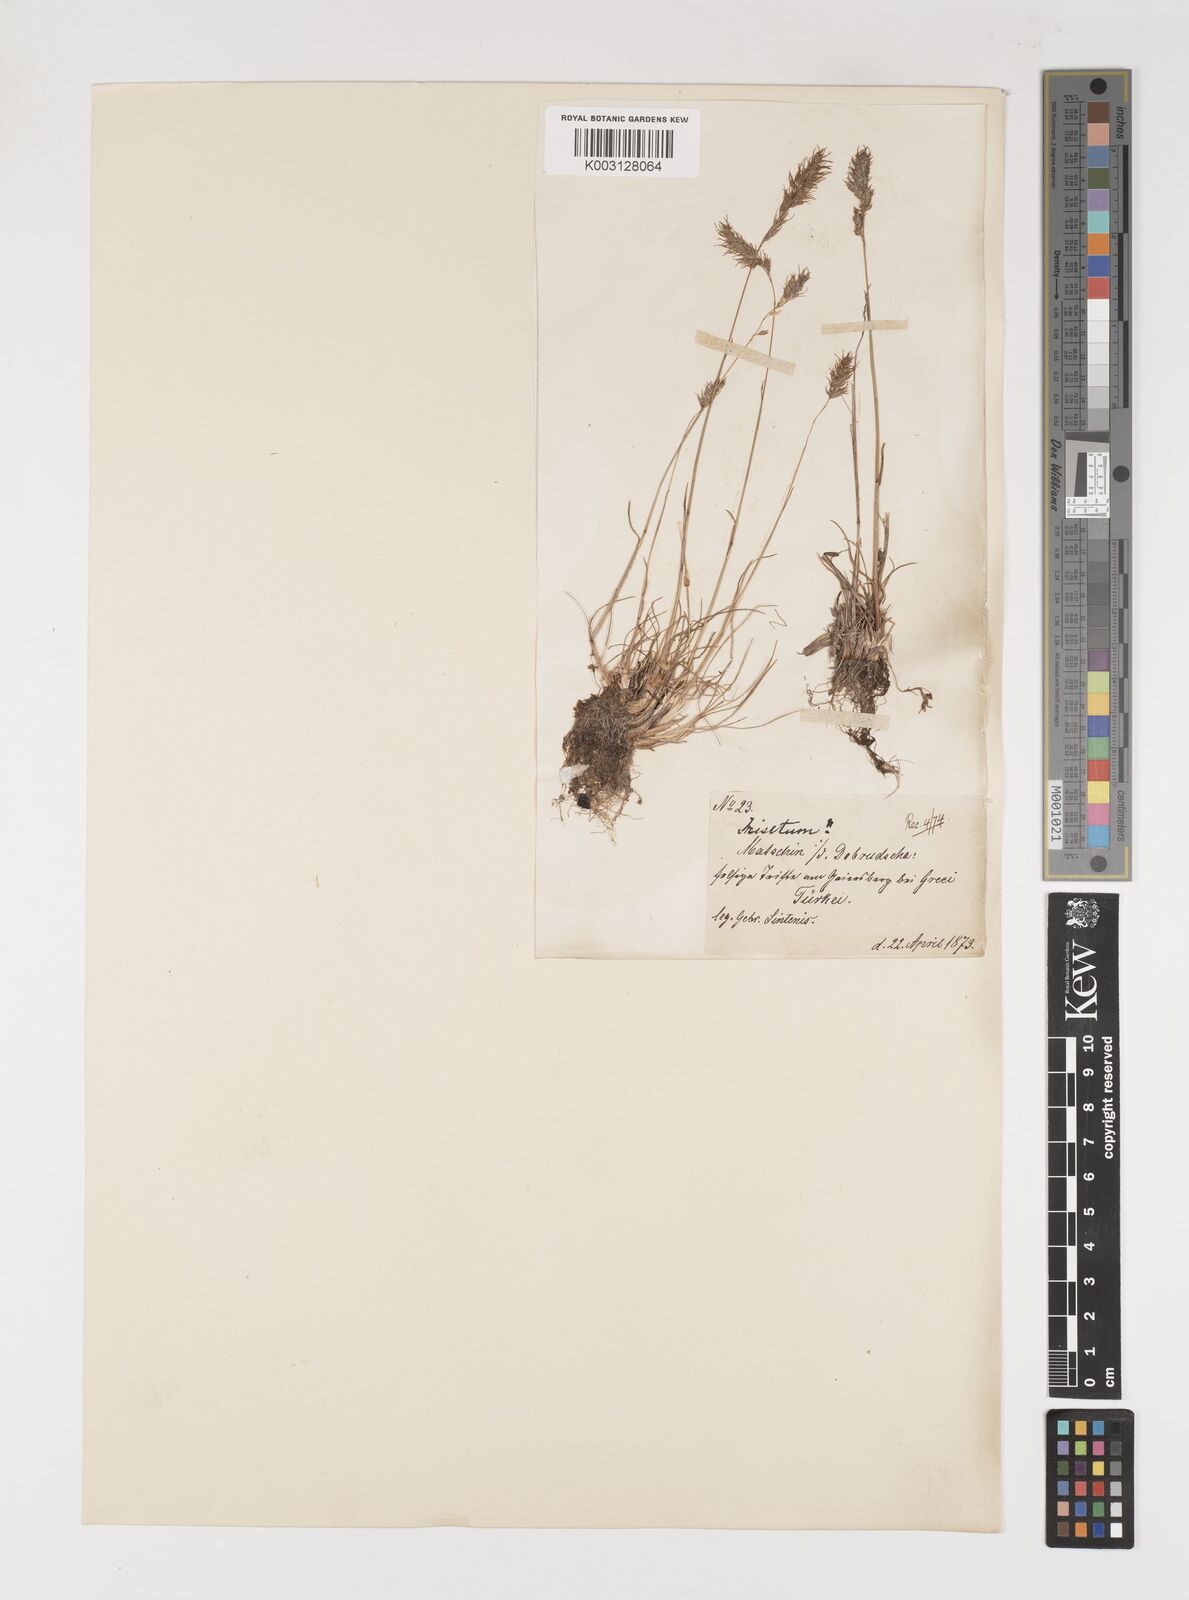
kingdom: Plantae
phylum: Tracheophyta
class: Liliopsida
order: Poales
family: Poaceae
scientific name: Poaceae
